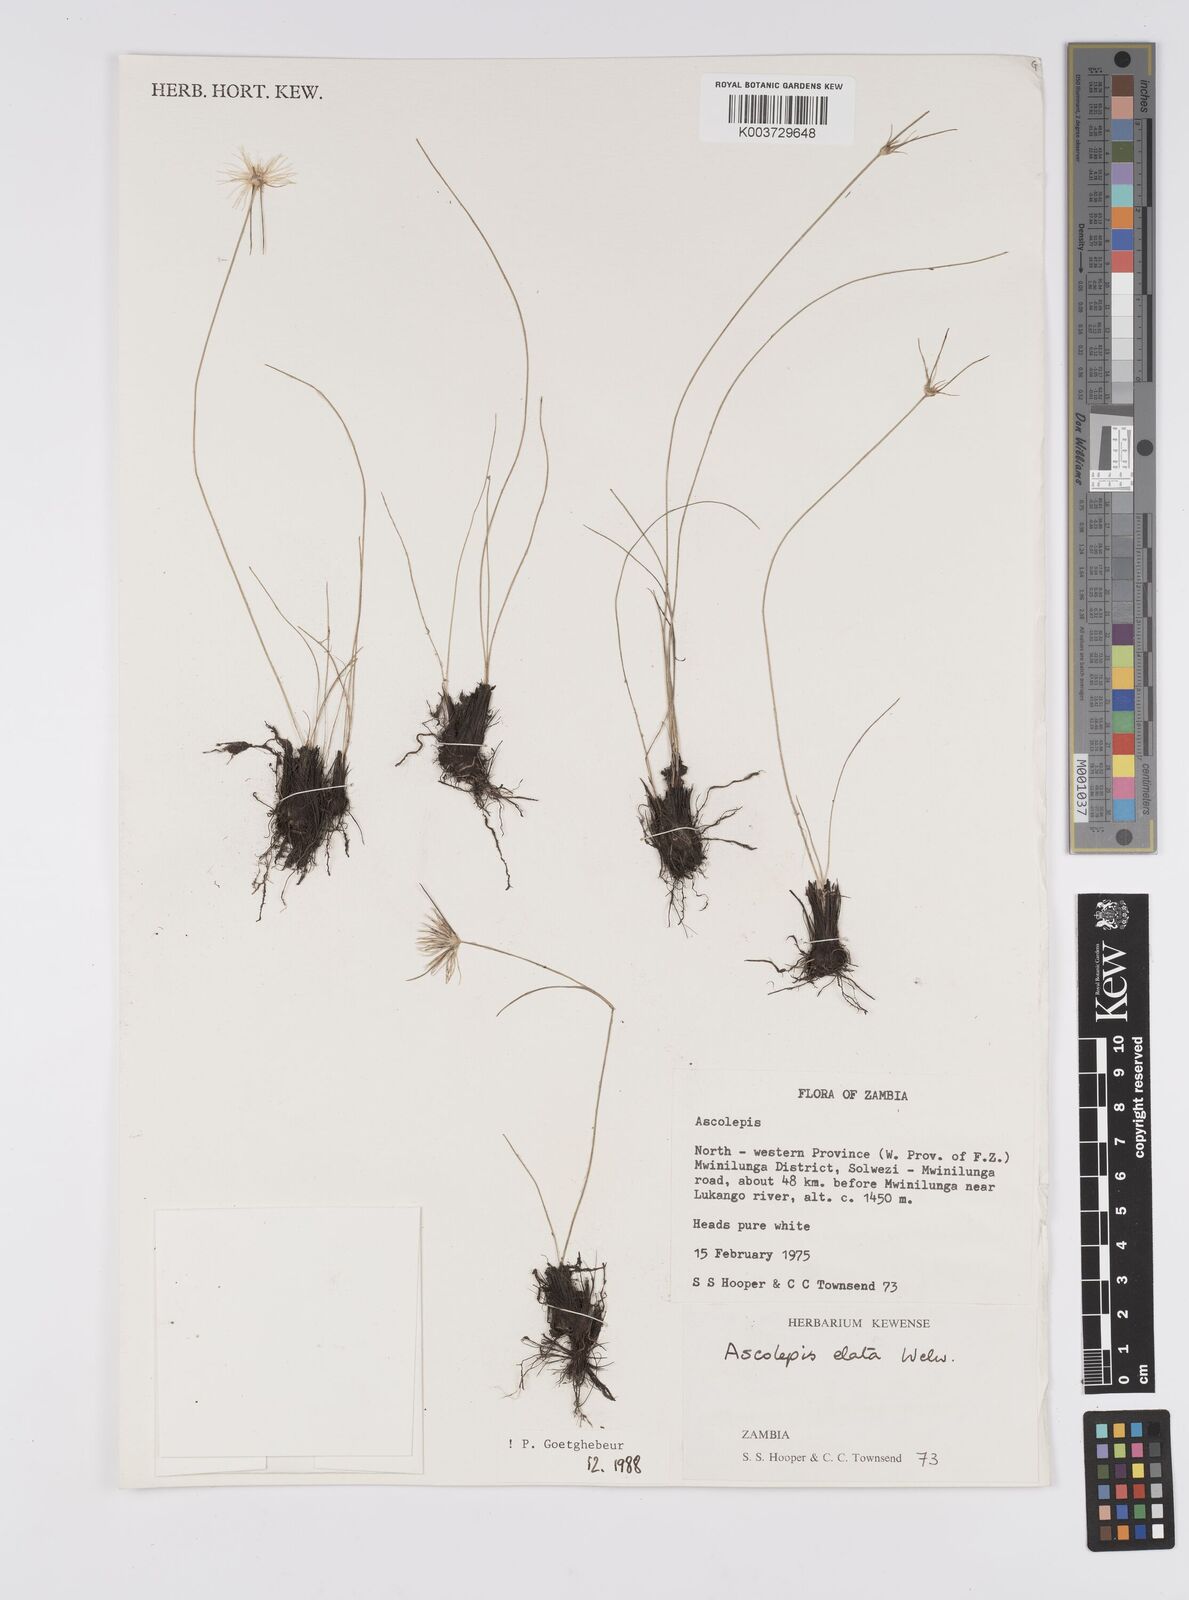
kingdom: Plantae
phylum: Tracheophyta
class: Liliopsida
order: Poales
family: Cyperaceae
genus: Cyperus
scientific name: Cyperus
